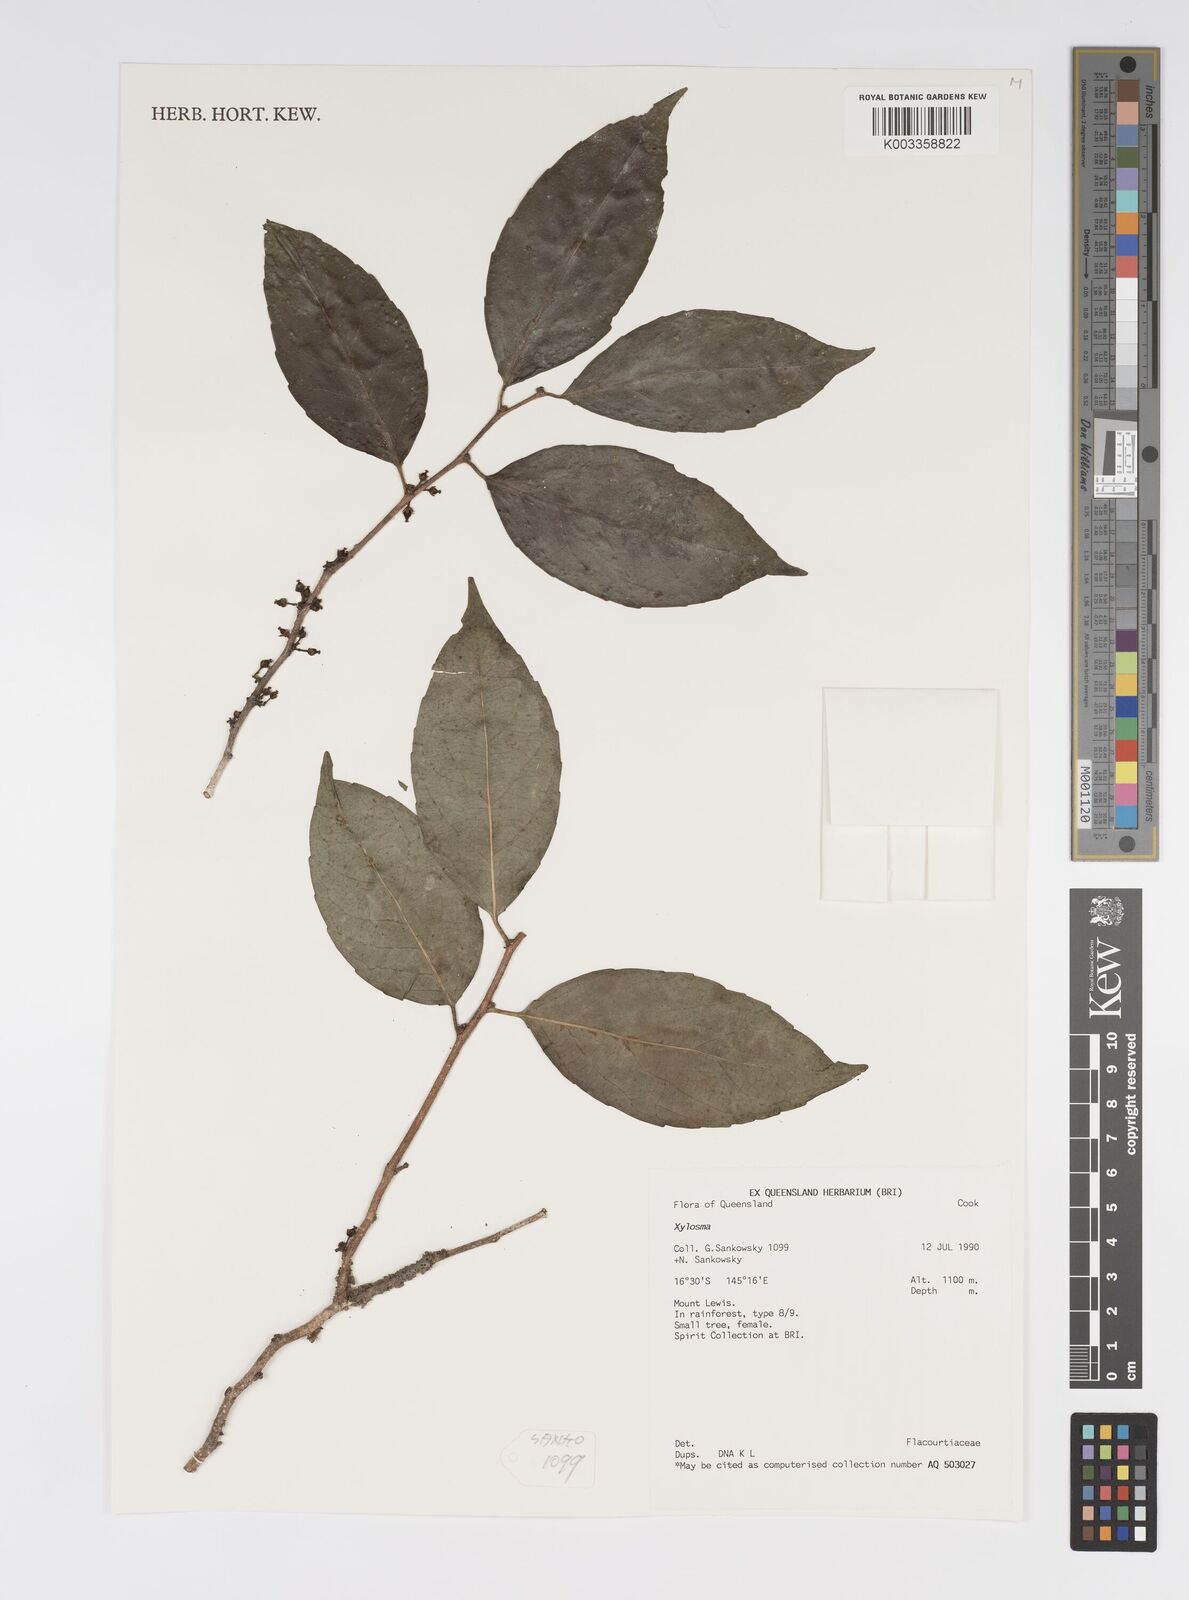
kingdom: Plantae
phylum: Tracheophyta
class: Magnoliopsida
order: Malpighiales
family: Salicaceae
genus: Xylosma
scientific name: Xylosma
